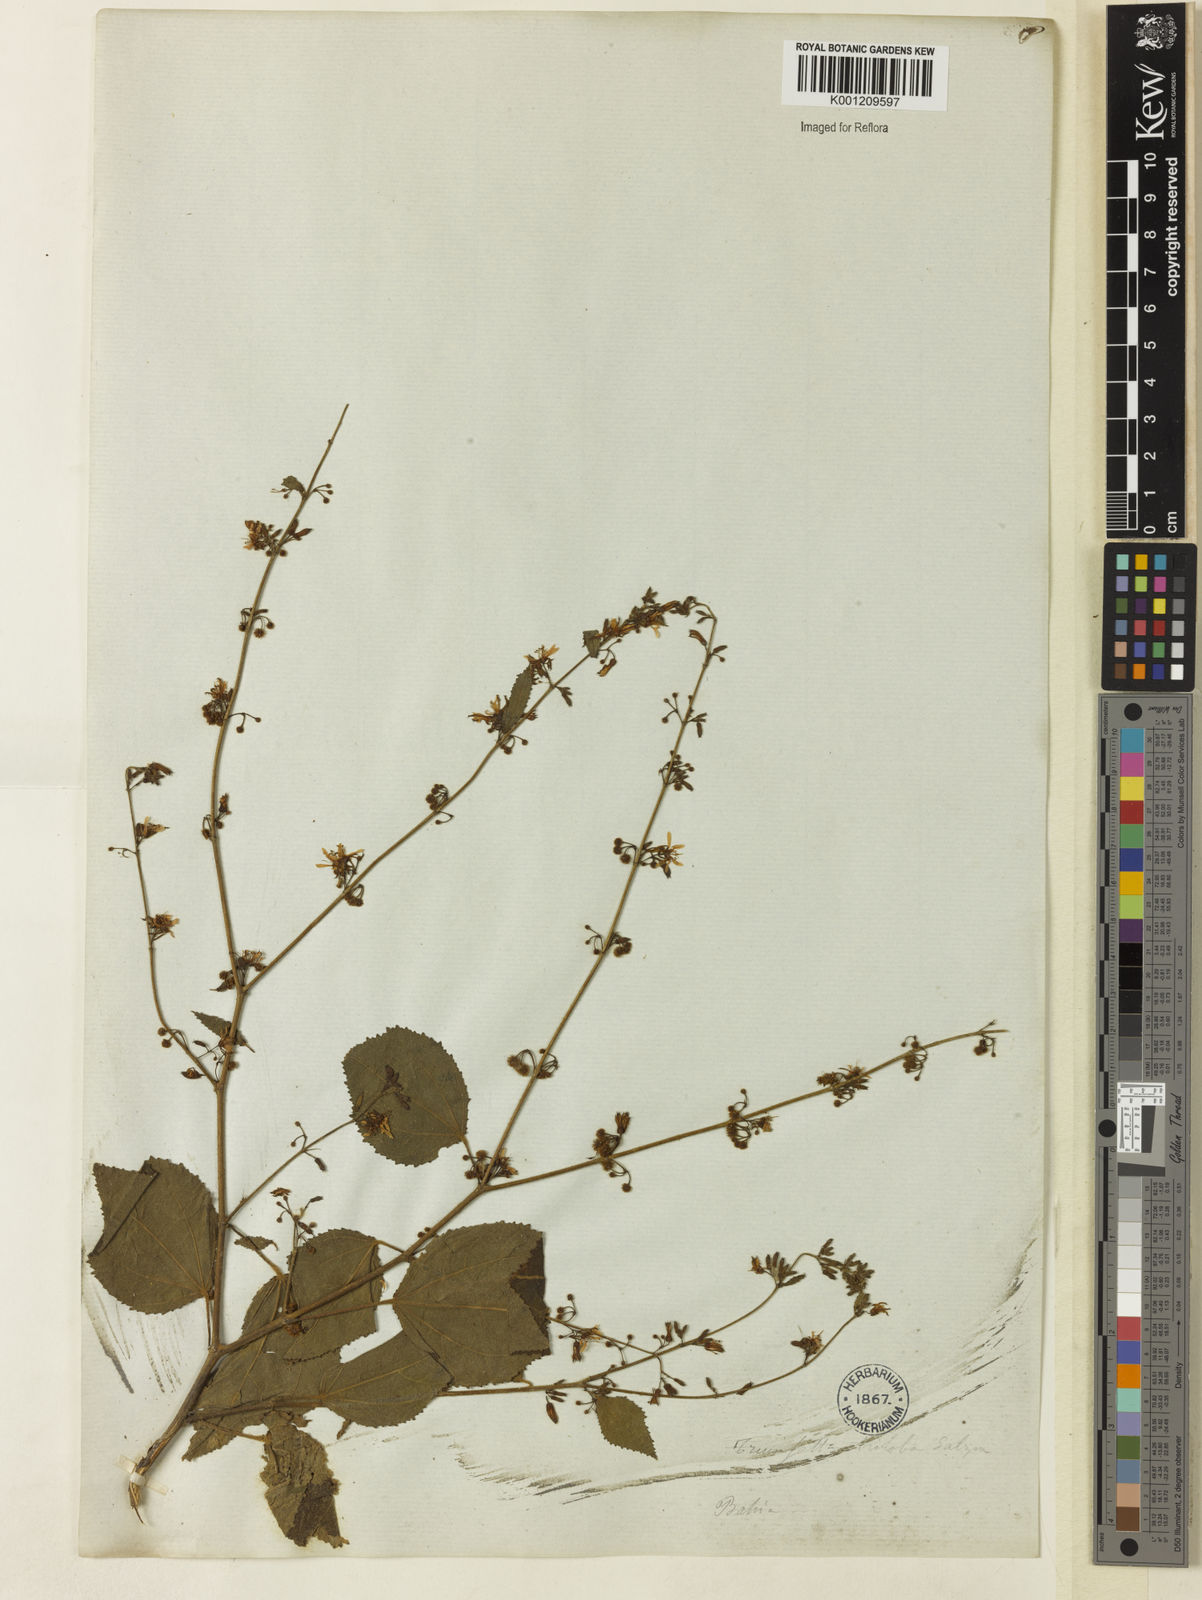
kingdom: Plantae
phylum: Tracheophyta
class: Magnoliopsida
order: Malvales
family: Malvaceae
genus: Triumfetta
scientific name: Triumfetta
